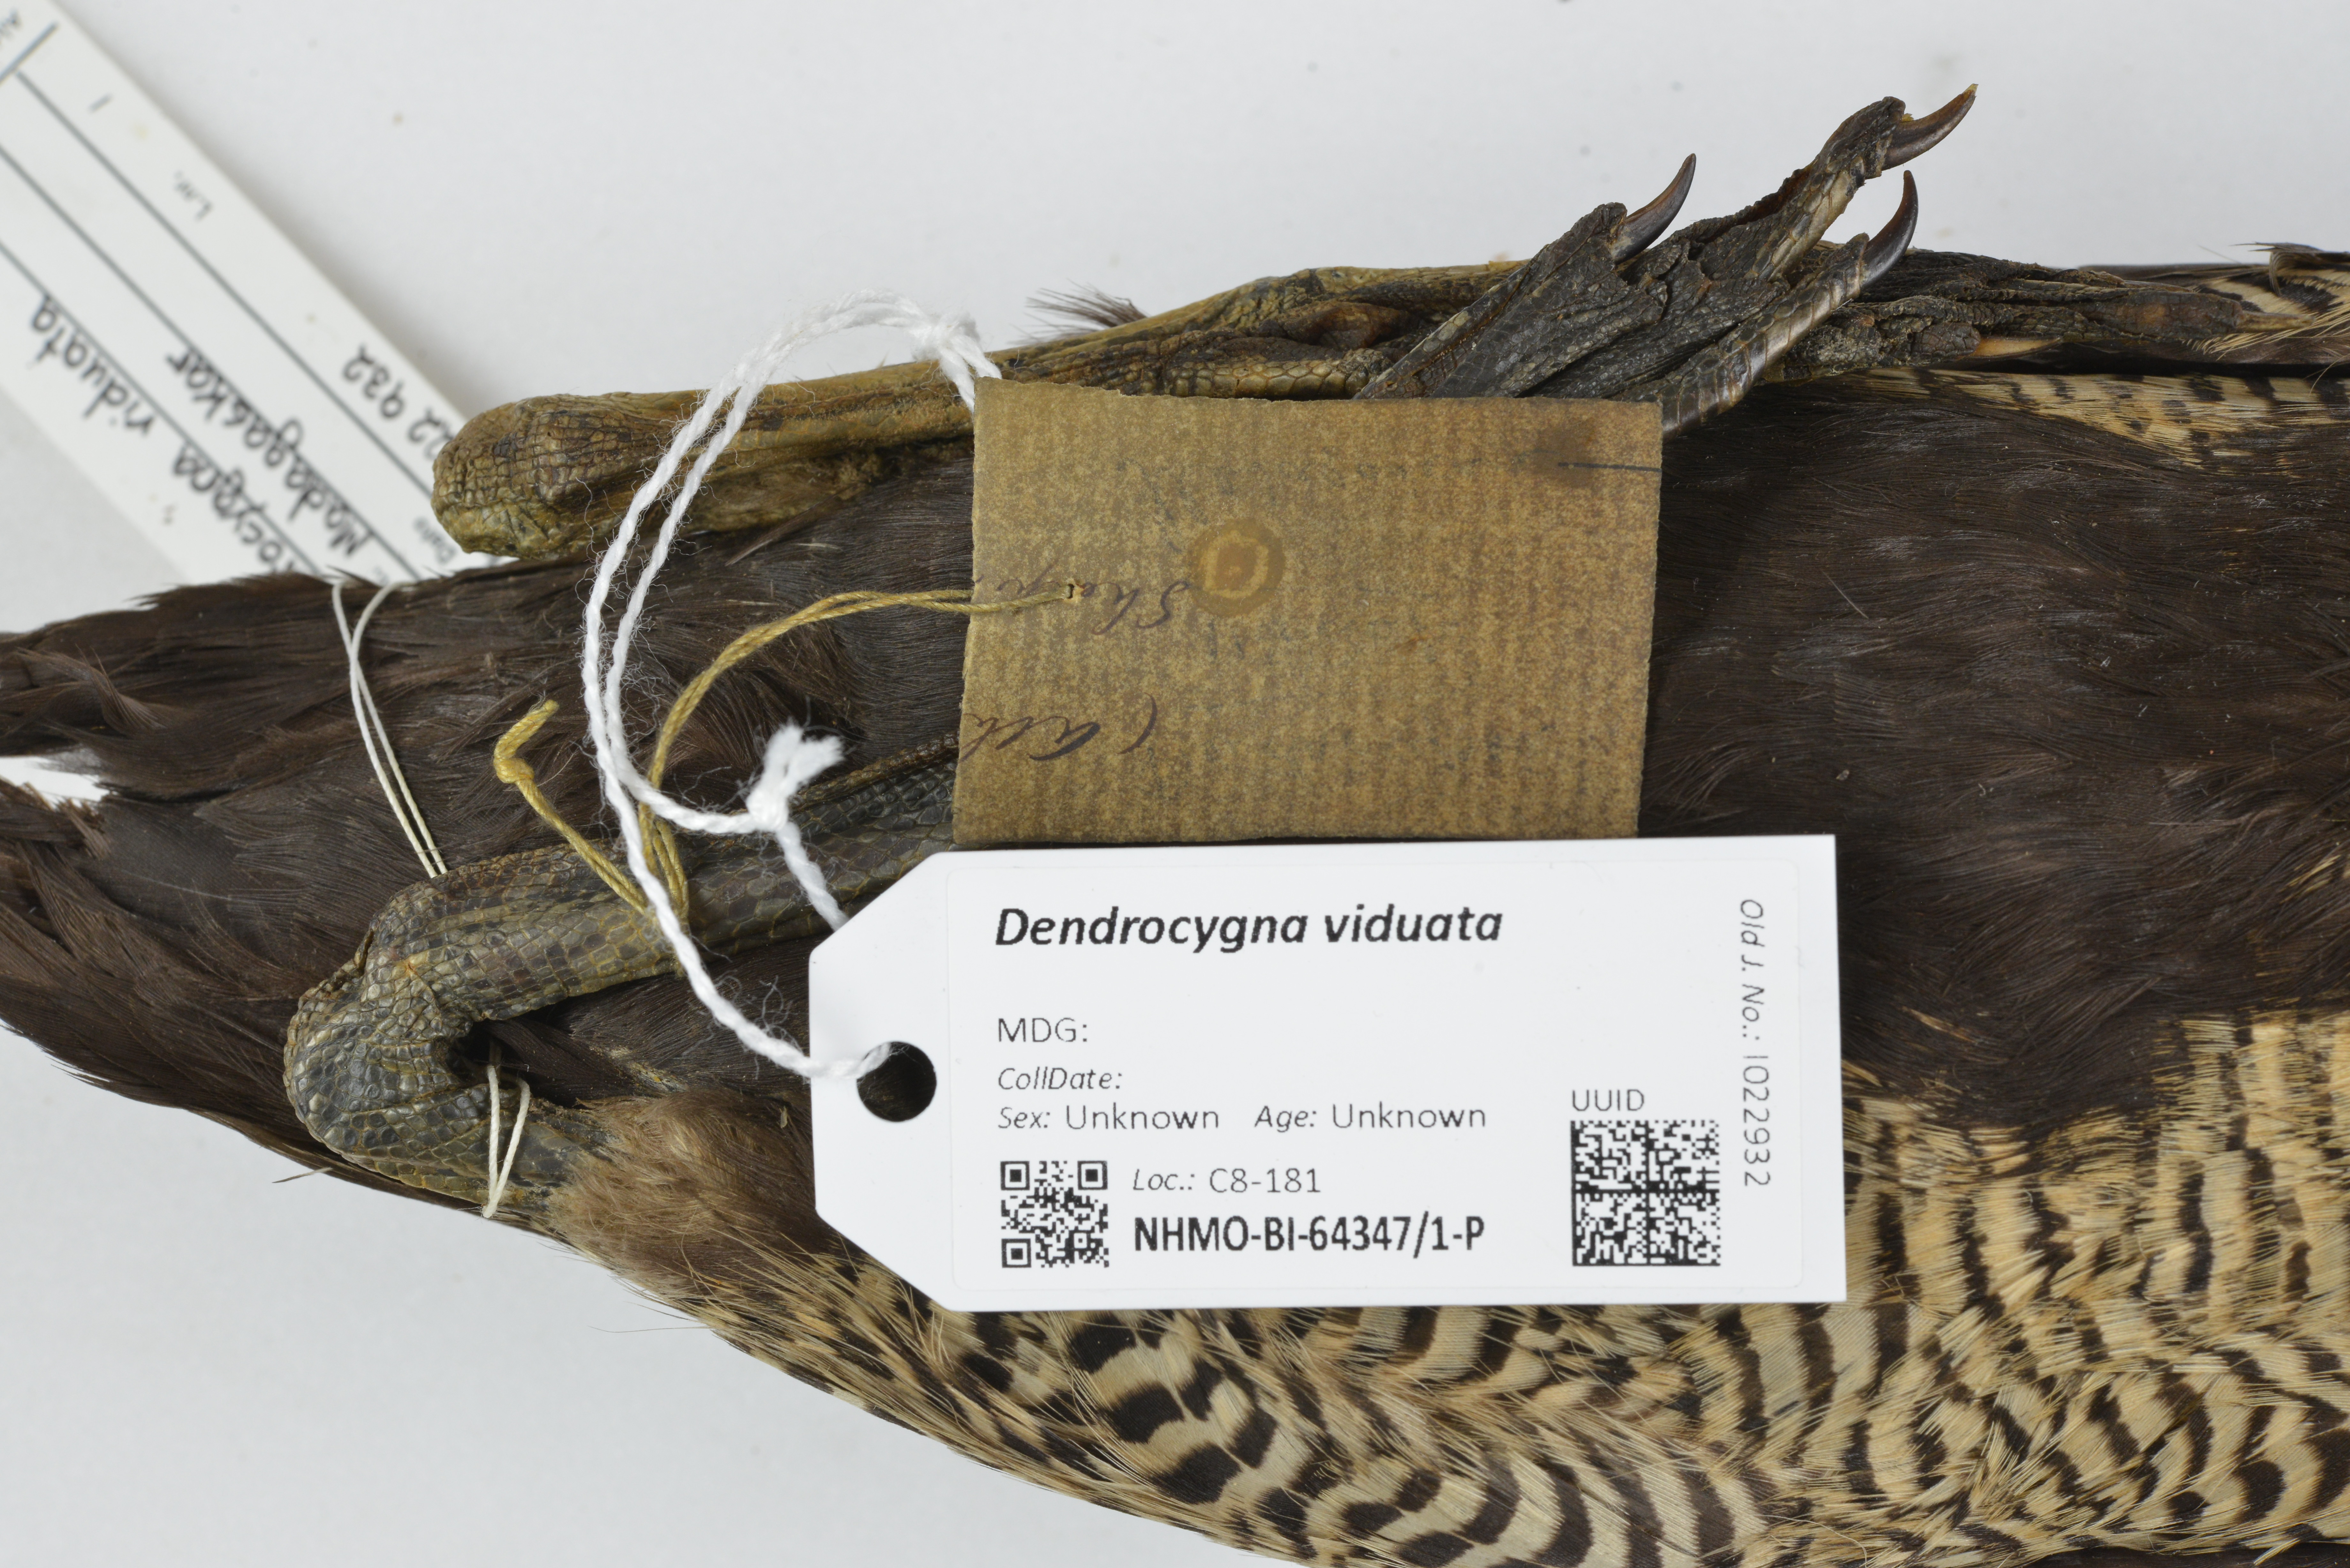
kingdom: Animalia
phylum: Chordata
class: Aves
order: Anseriformes
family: Anatidae
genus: Dendrocygna
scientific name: Dendrocygna viduata
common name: White-faced whistling duck
